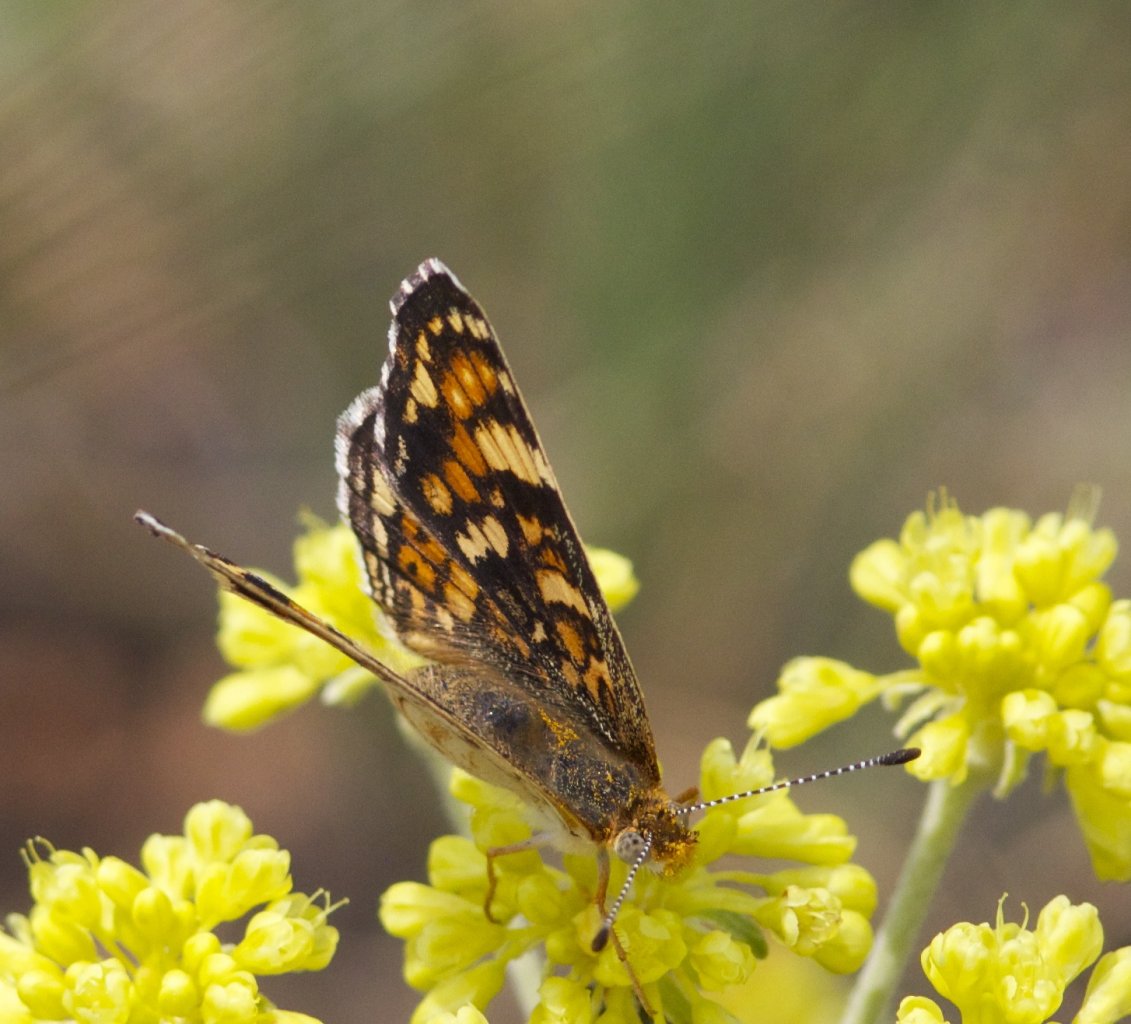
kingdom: Animalia
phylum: Arthropoda
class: Insecta
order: Lepidoptera
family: Nymphalidae
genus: Phyciodes
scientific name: Phyciodes tharos
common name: Field Crescent
